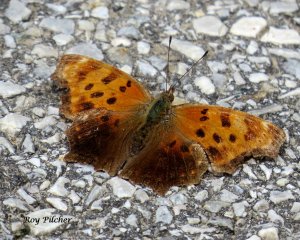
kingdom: Animalia
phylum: Arthropoda
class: Insecta
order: Lepidoptera
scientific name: Lepidoptera
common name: Butterflies
